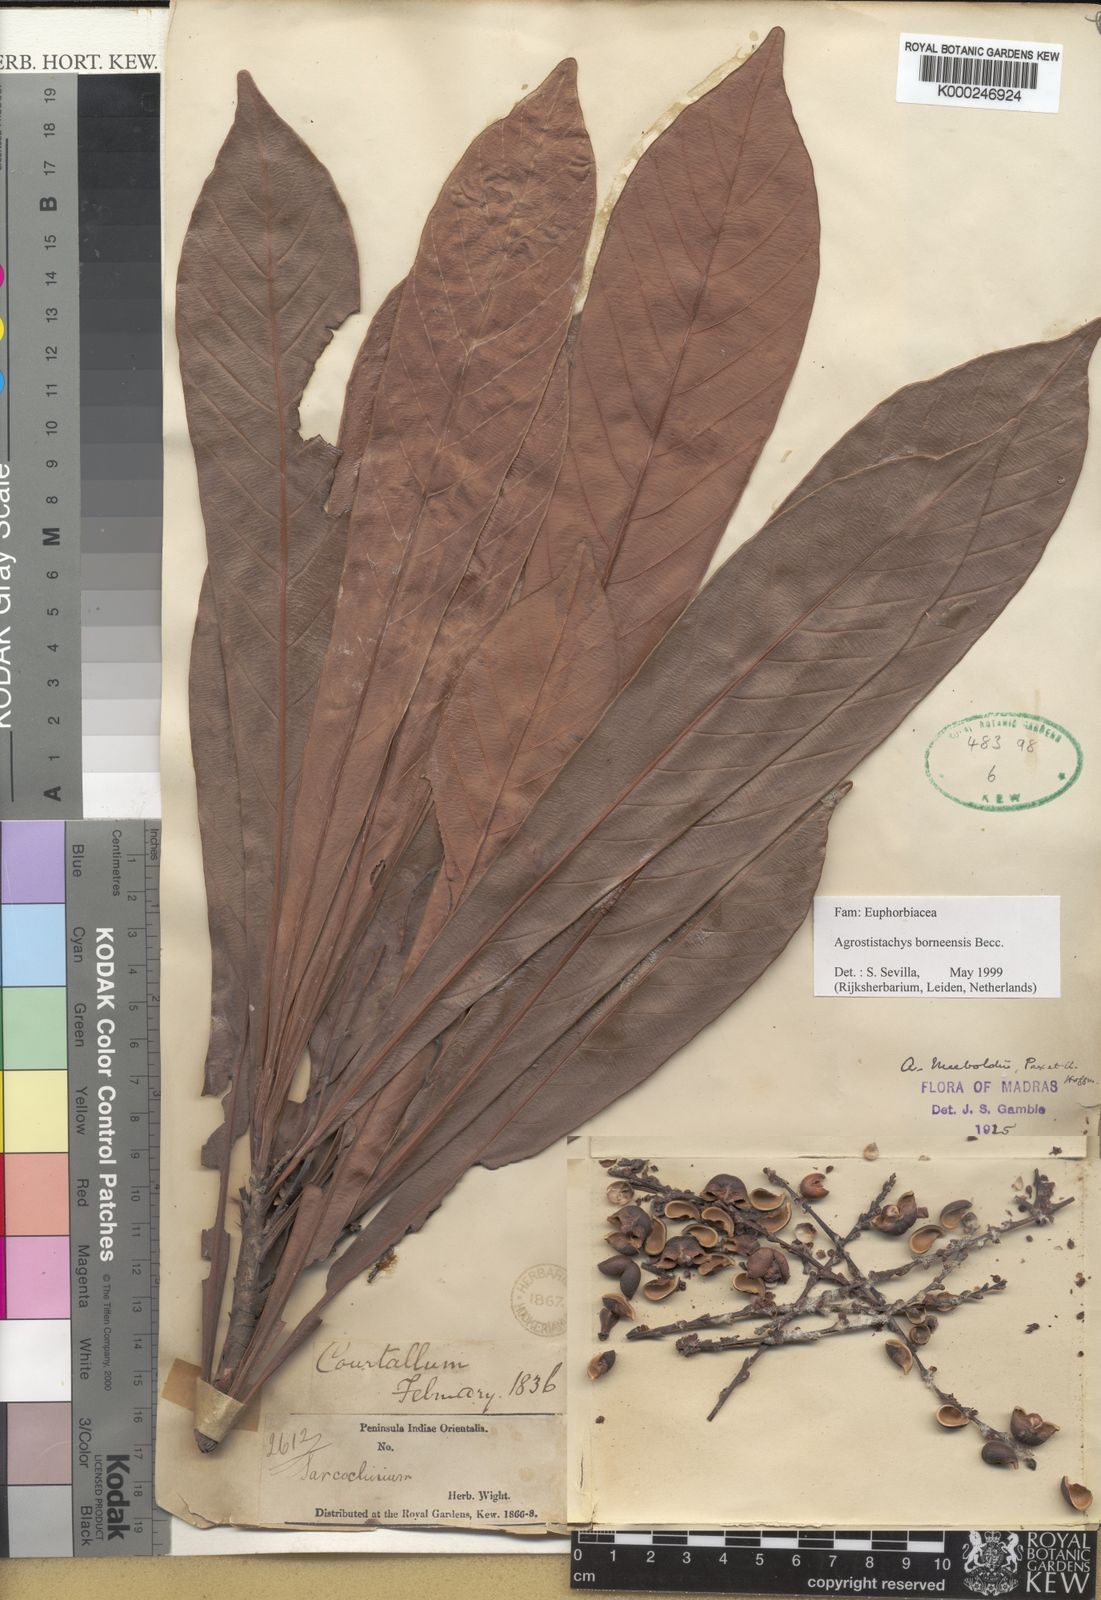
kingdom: Plantae
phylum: Tracheophyta
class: Magnoliopsida
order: Malpighiales
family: Euphorbiaceae
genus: Agrostistachys
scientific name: Agrostistachys borneensis
